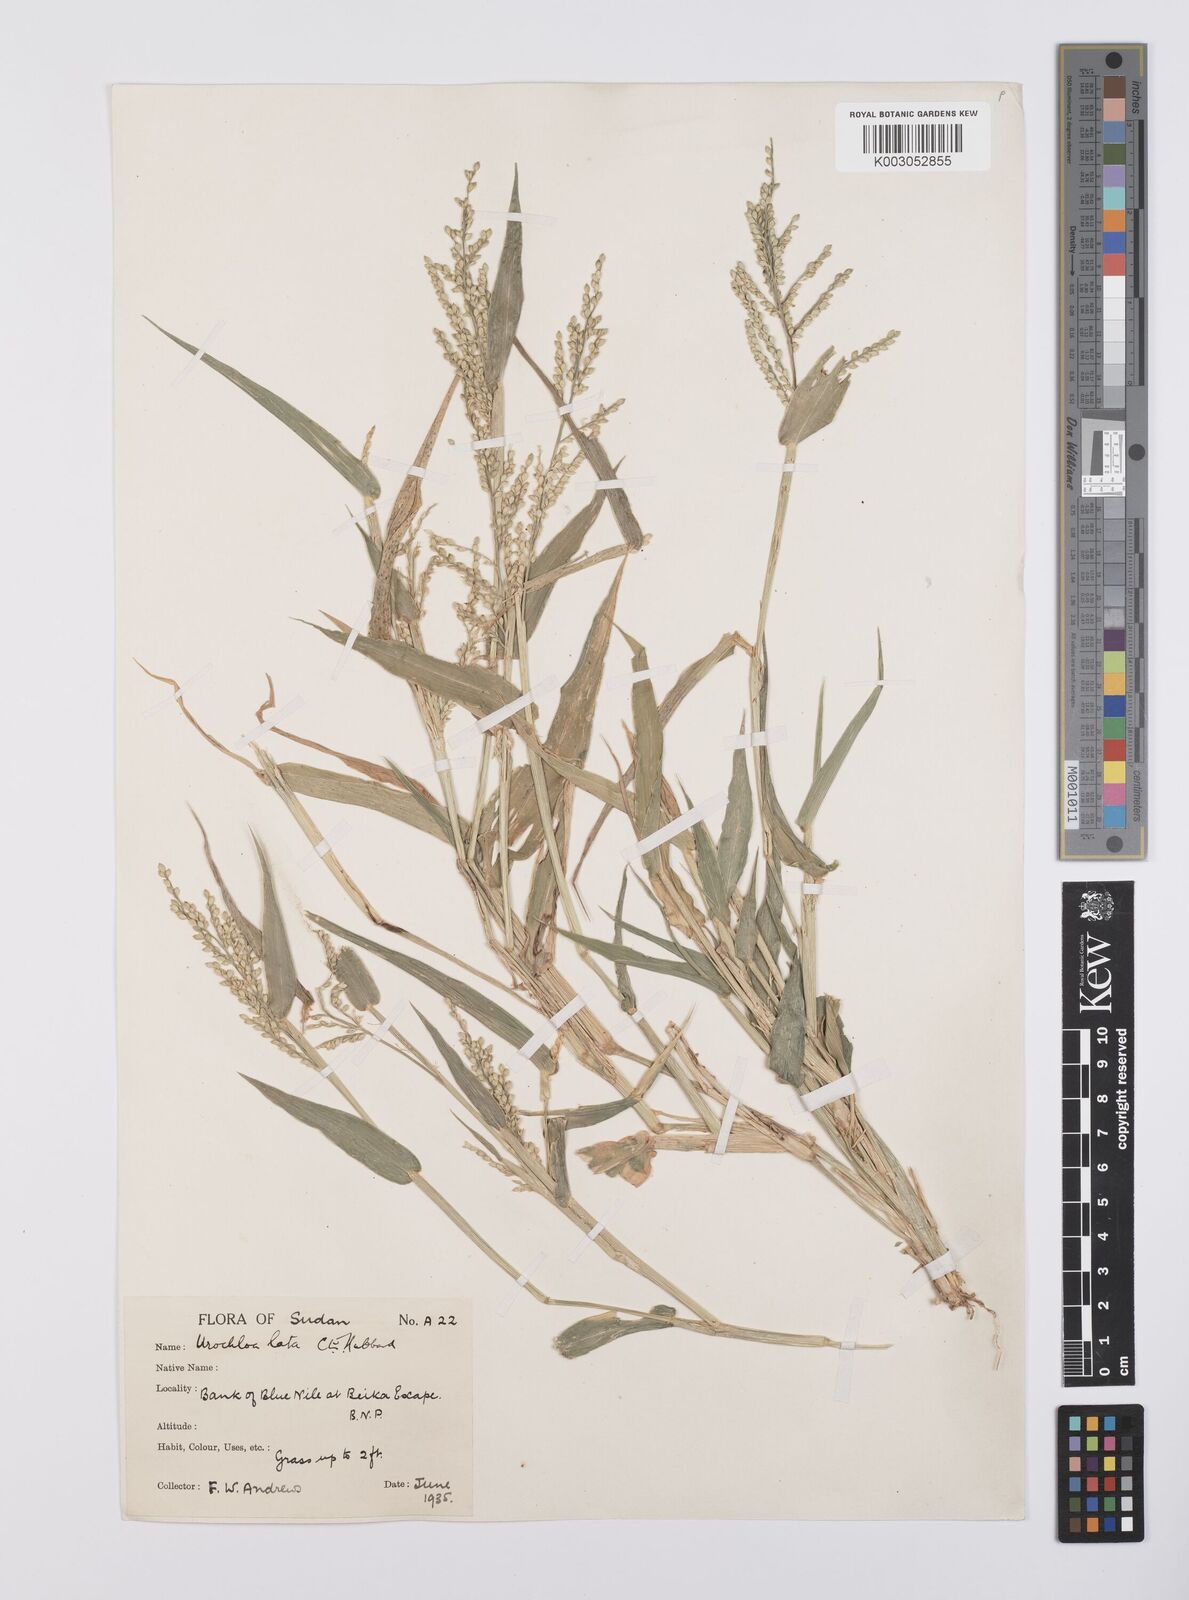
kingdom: Plantae
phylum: Tracheophyta
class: Liliopsida
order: Poales
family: Poaceae
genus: Urochloa
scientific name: Urochloa lata
